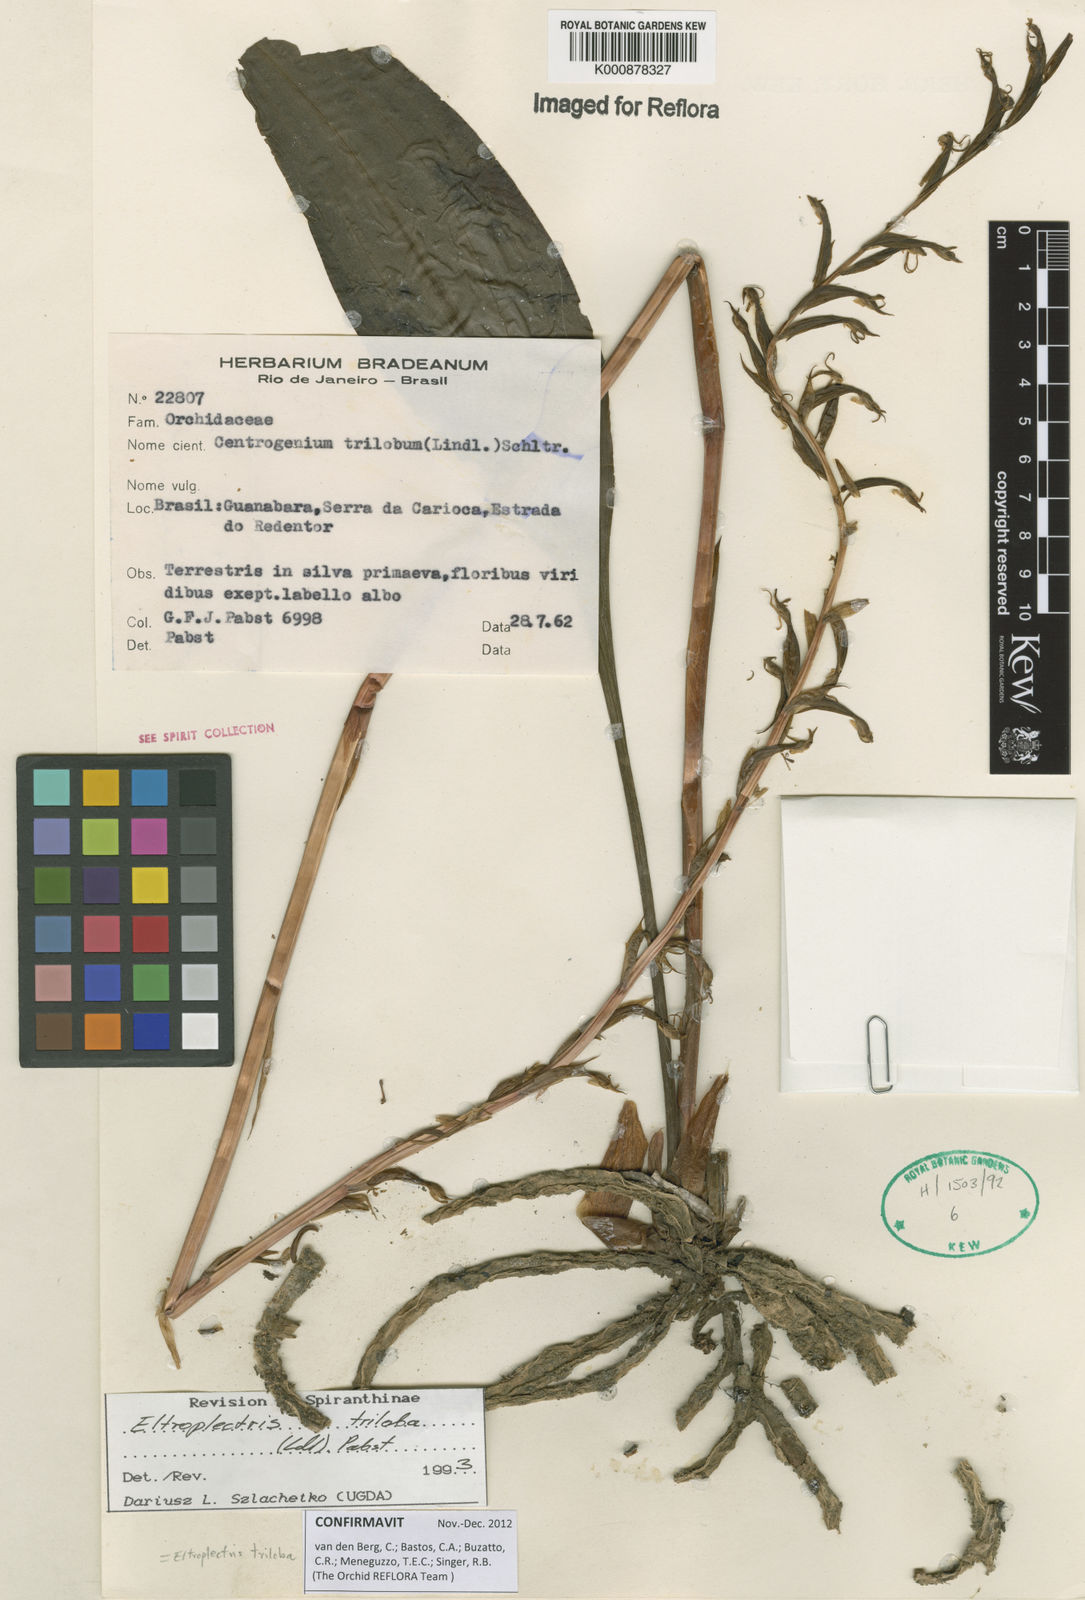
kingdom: Plantae
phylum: Tracheophyta
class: Liliopsida
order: Asparagales
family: Orchidaceae
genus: Eltroplectris
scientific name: Eltroplectris triloba
